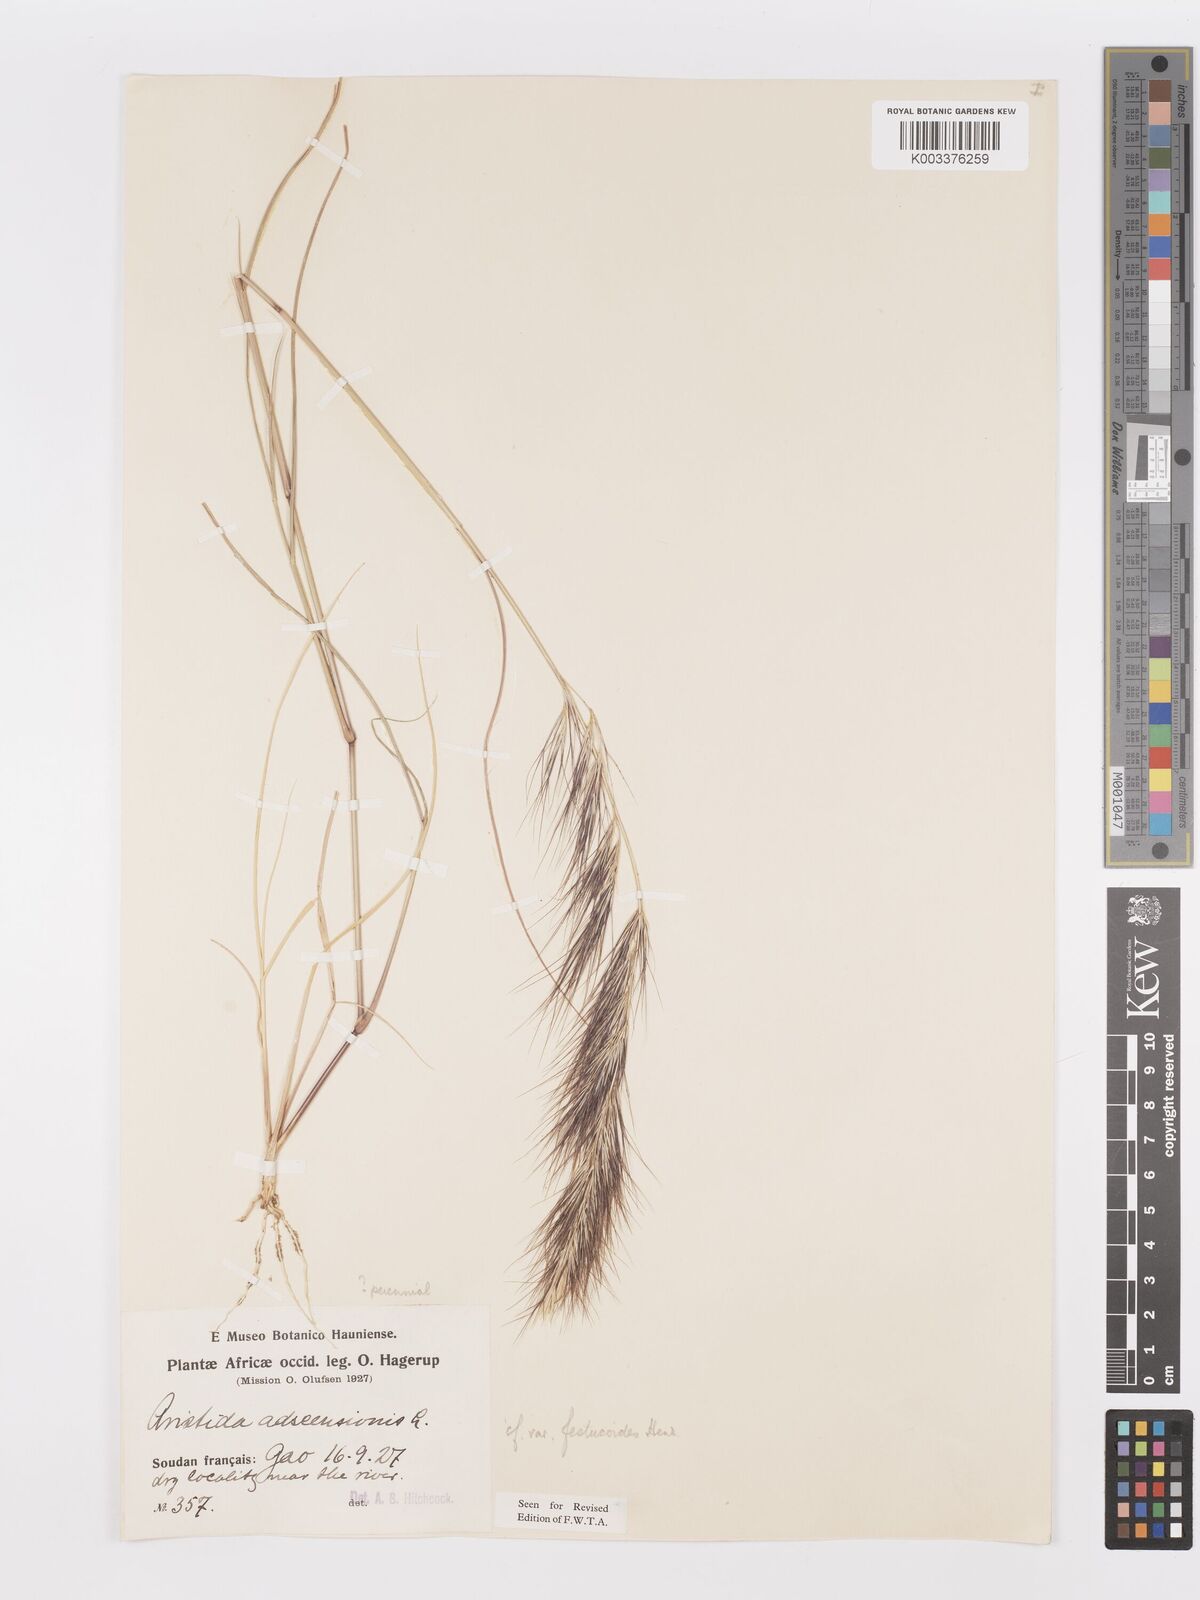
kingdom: Plantae
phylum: Tracheophyta
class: Liliopsida
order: Poales
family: Poaceae
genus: Aristida
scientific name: Aristida adscensionis
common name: Sixweeks threeawn
